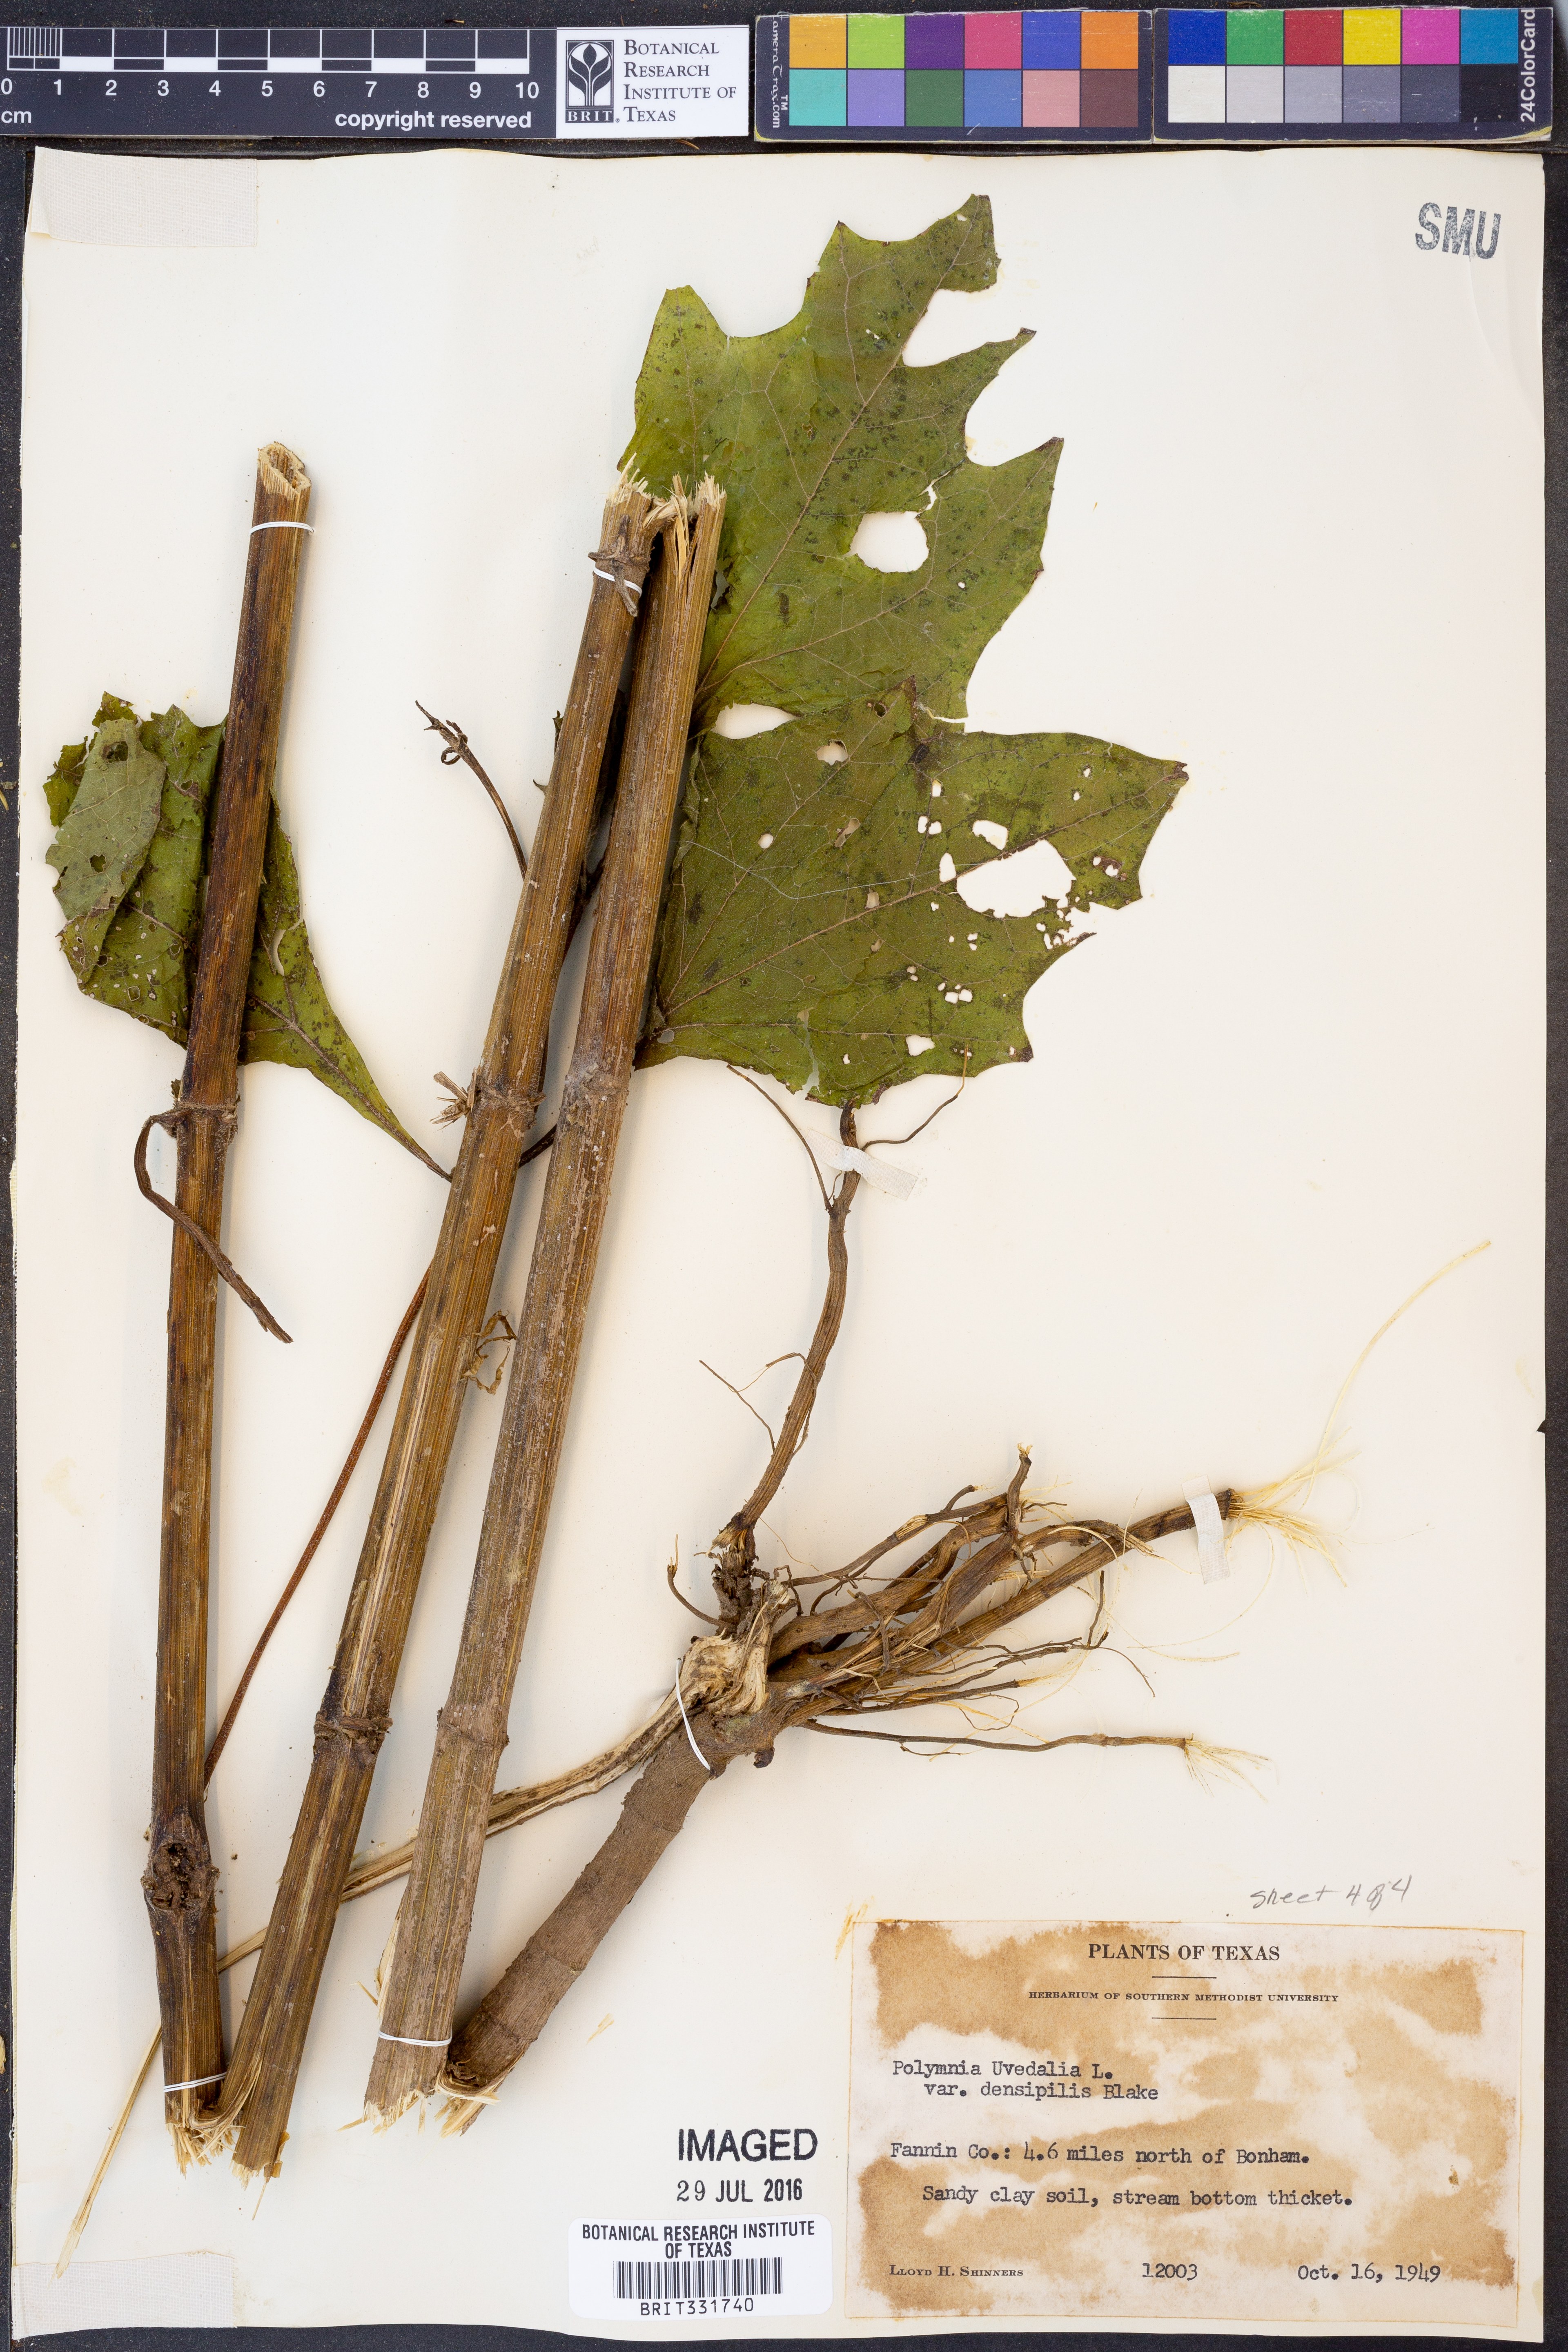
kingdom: Plantae
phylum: Tracheophyta
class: Magnoliopsida
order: Asterales
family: Asteraceae
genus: Smallanthus
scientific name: Smallanthus uvedalia
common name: Bear's-foot
